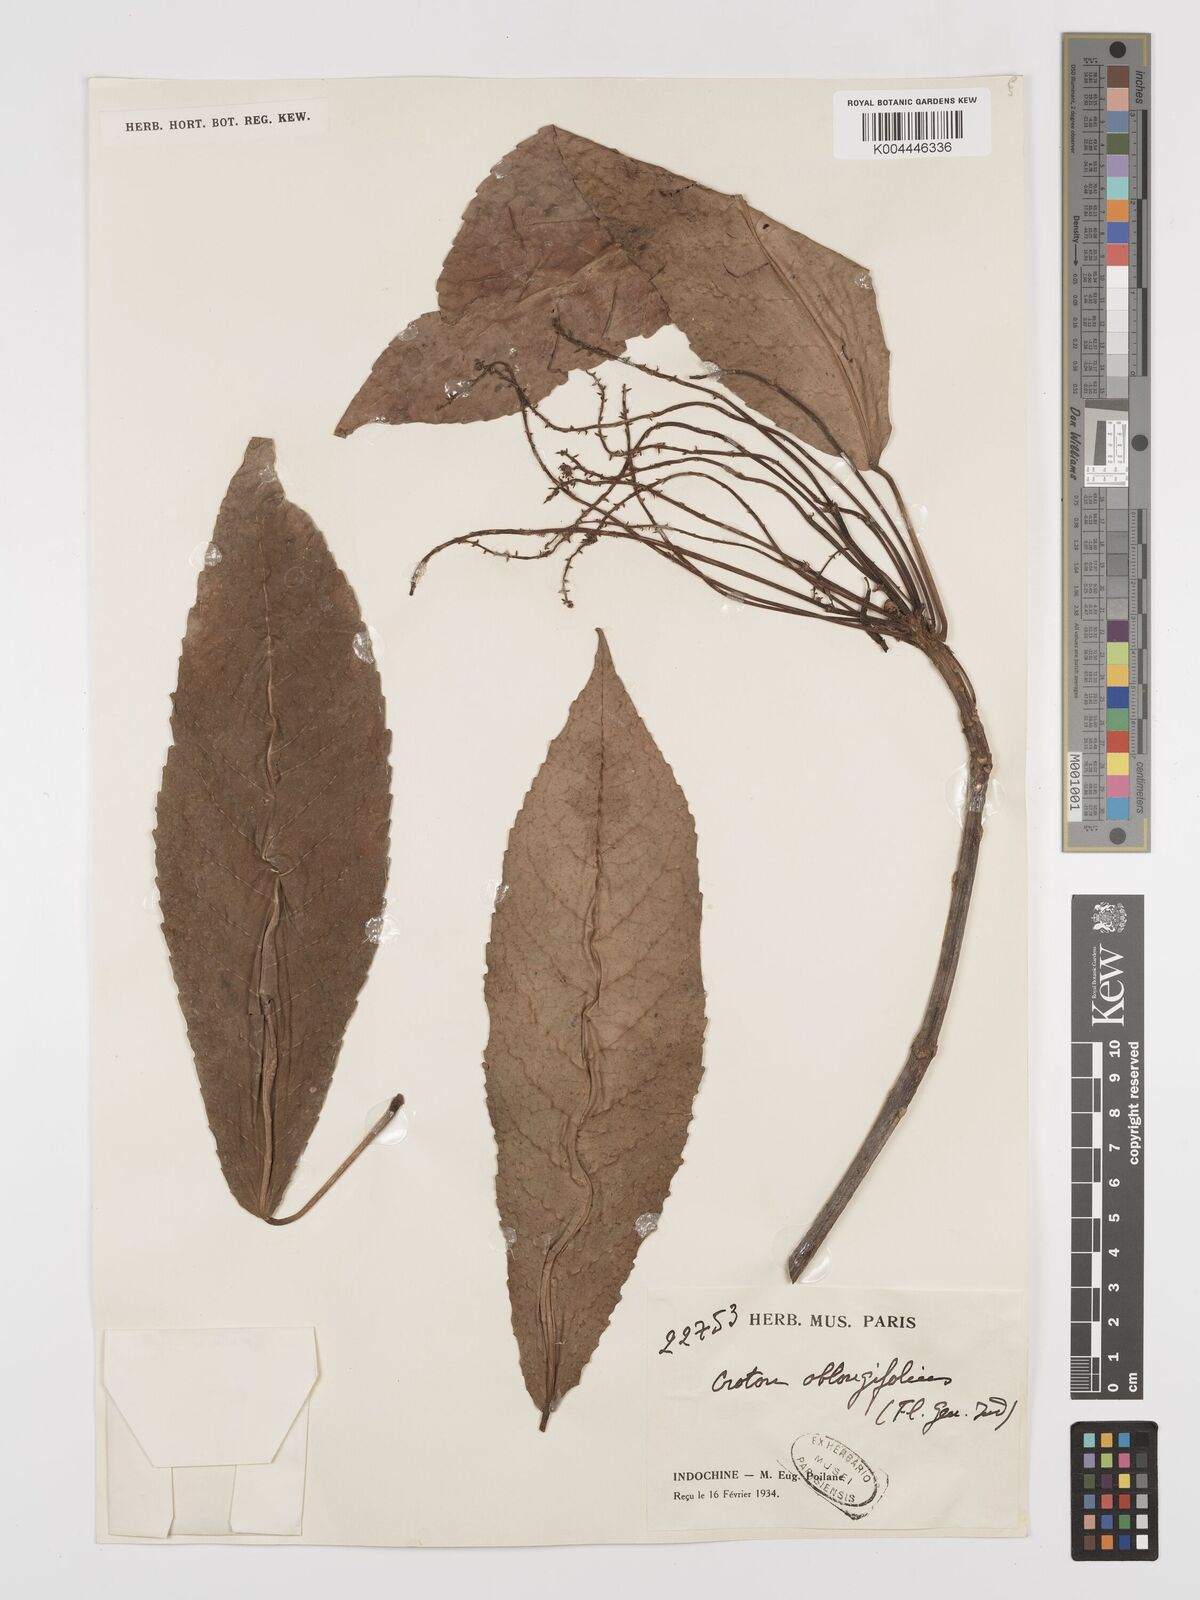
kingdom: Plantae
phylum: Tracheophyta
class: Magnoliopsida
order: Malpighiales
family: Euphorbiaceae
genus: Baliospermum
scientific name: Baliospermum solanifolium
